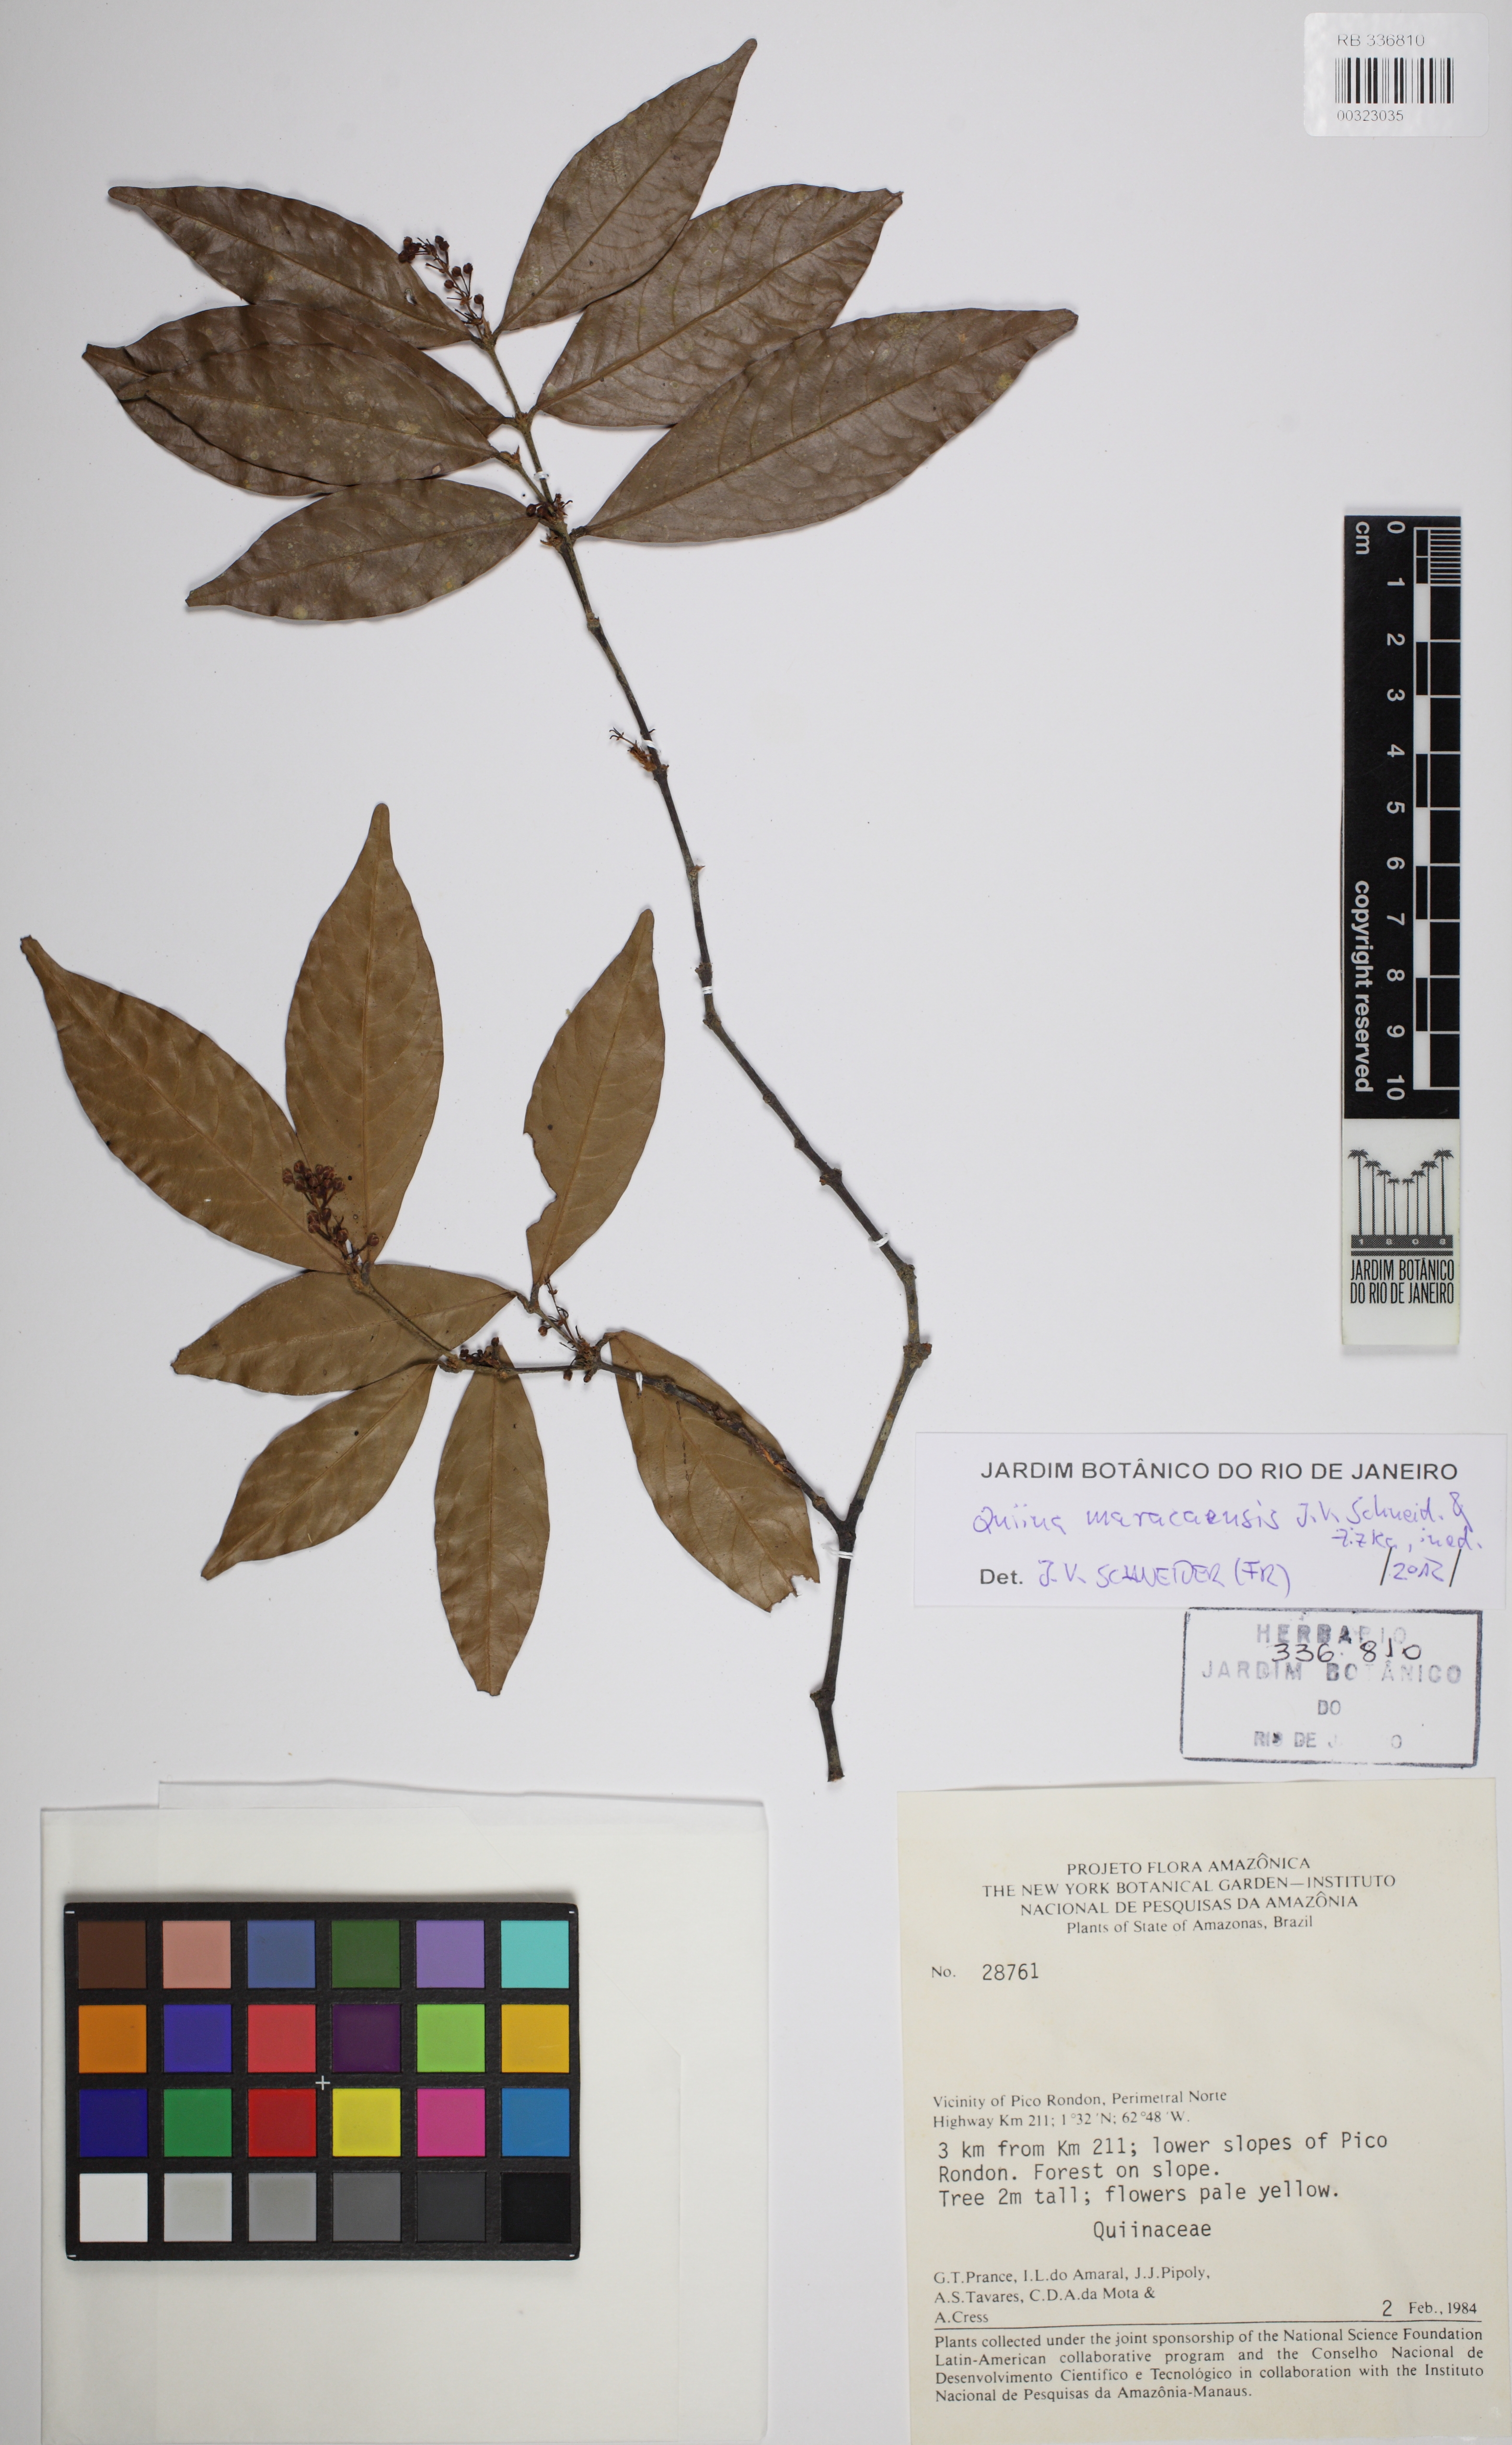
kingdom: Plantae
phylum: Tracheophyta
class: Magnoliopsida
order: Malpighiales
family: Quiinaceae
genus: Quiina
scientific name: Quiina
